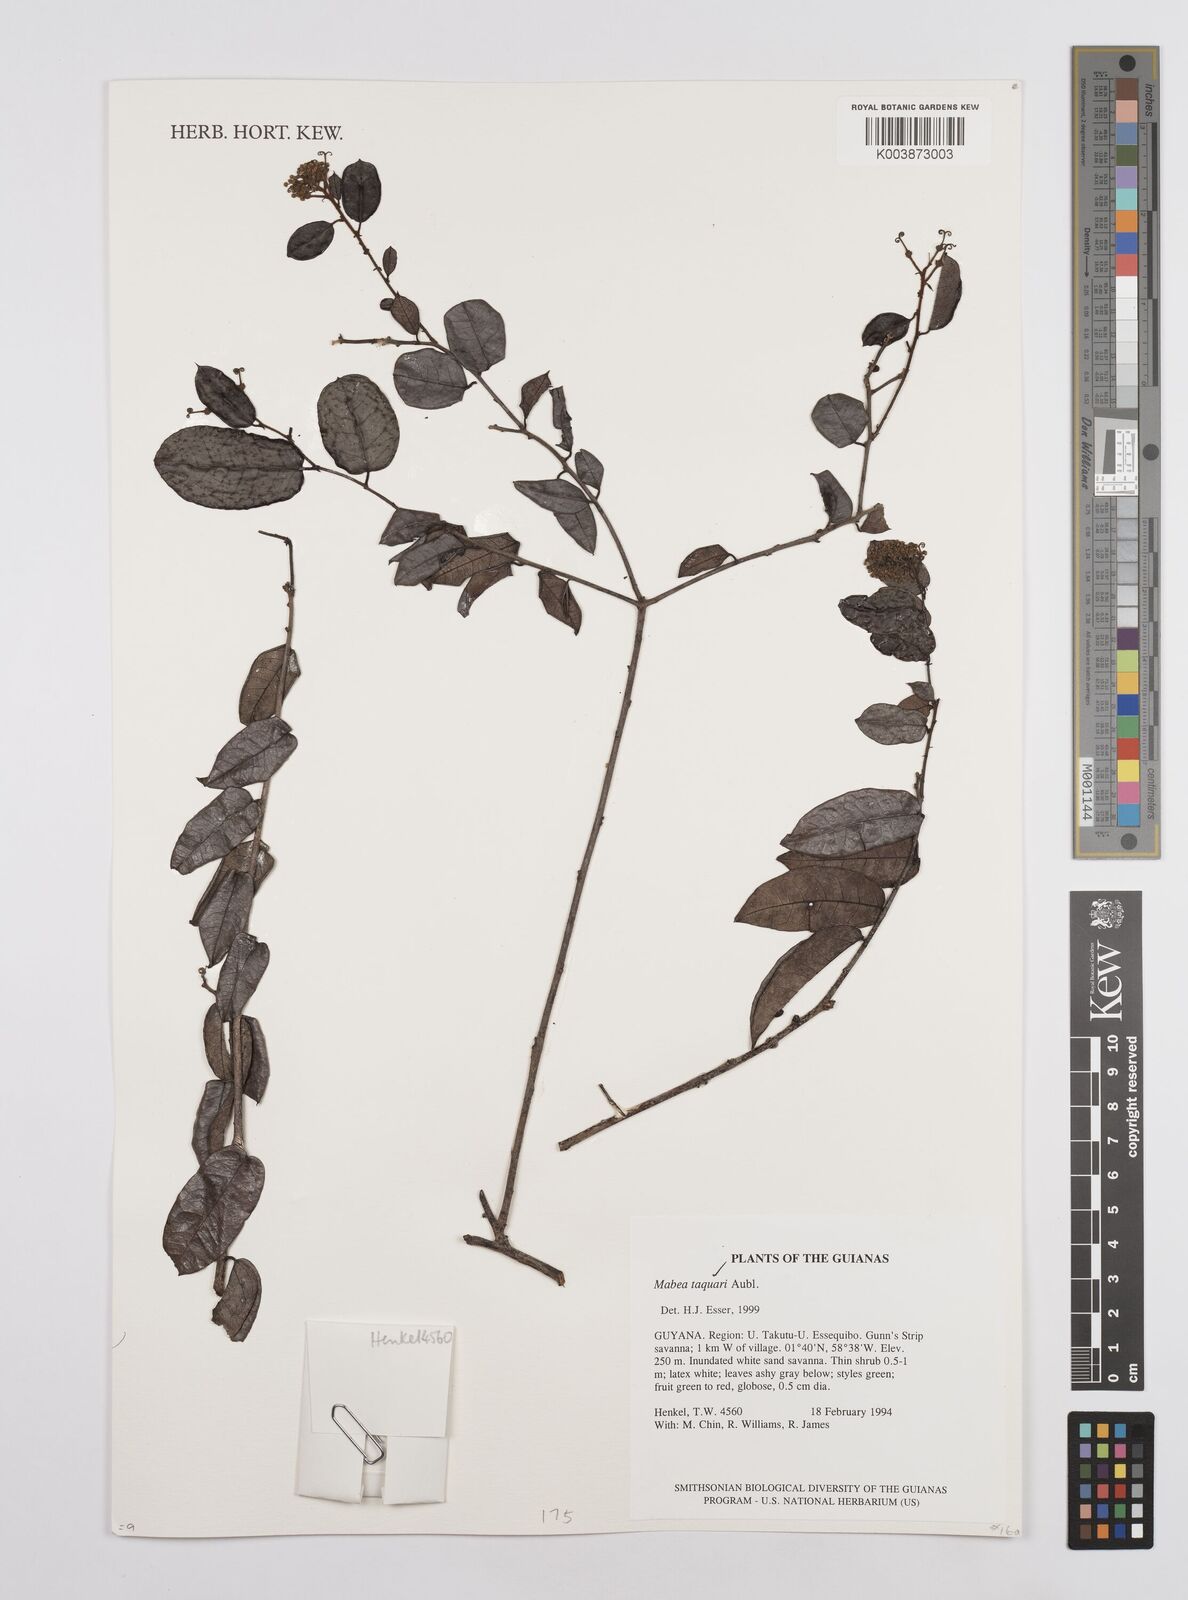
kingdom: Plantae
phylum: Tracheophyta
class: Magnoliopsida
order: Malpighiales
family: Euphorbiaceae
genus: Mabea
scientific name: Mabea taquari
